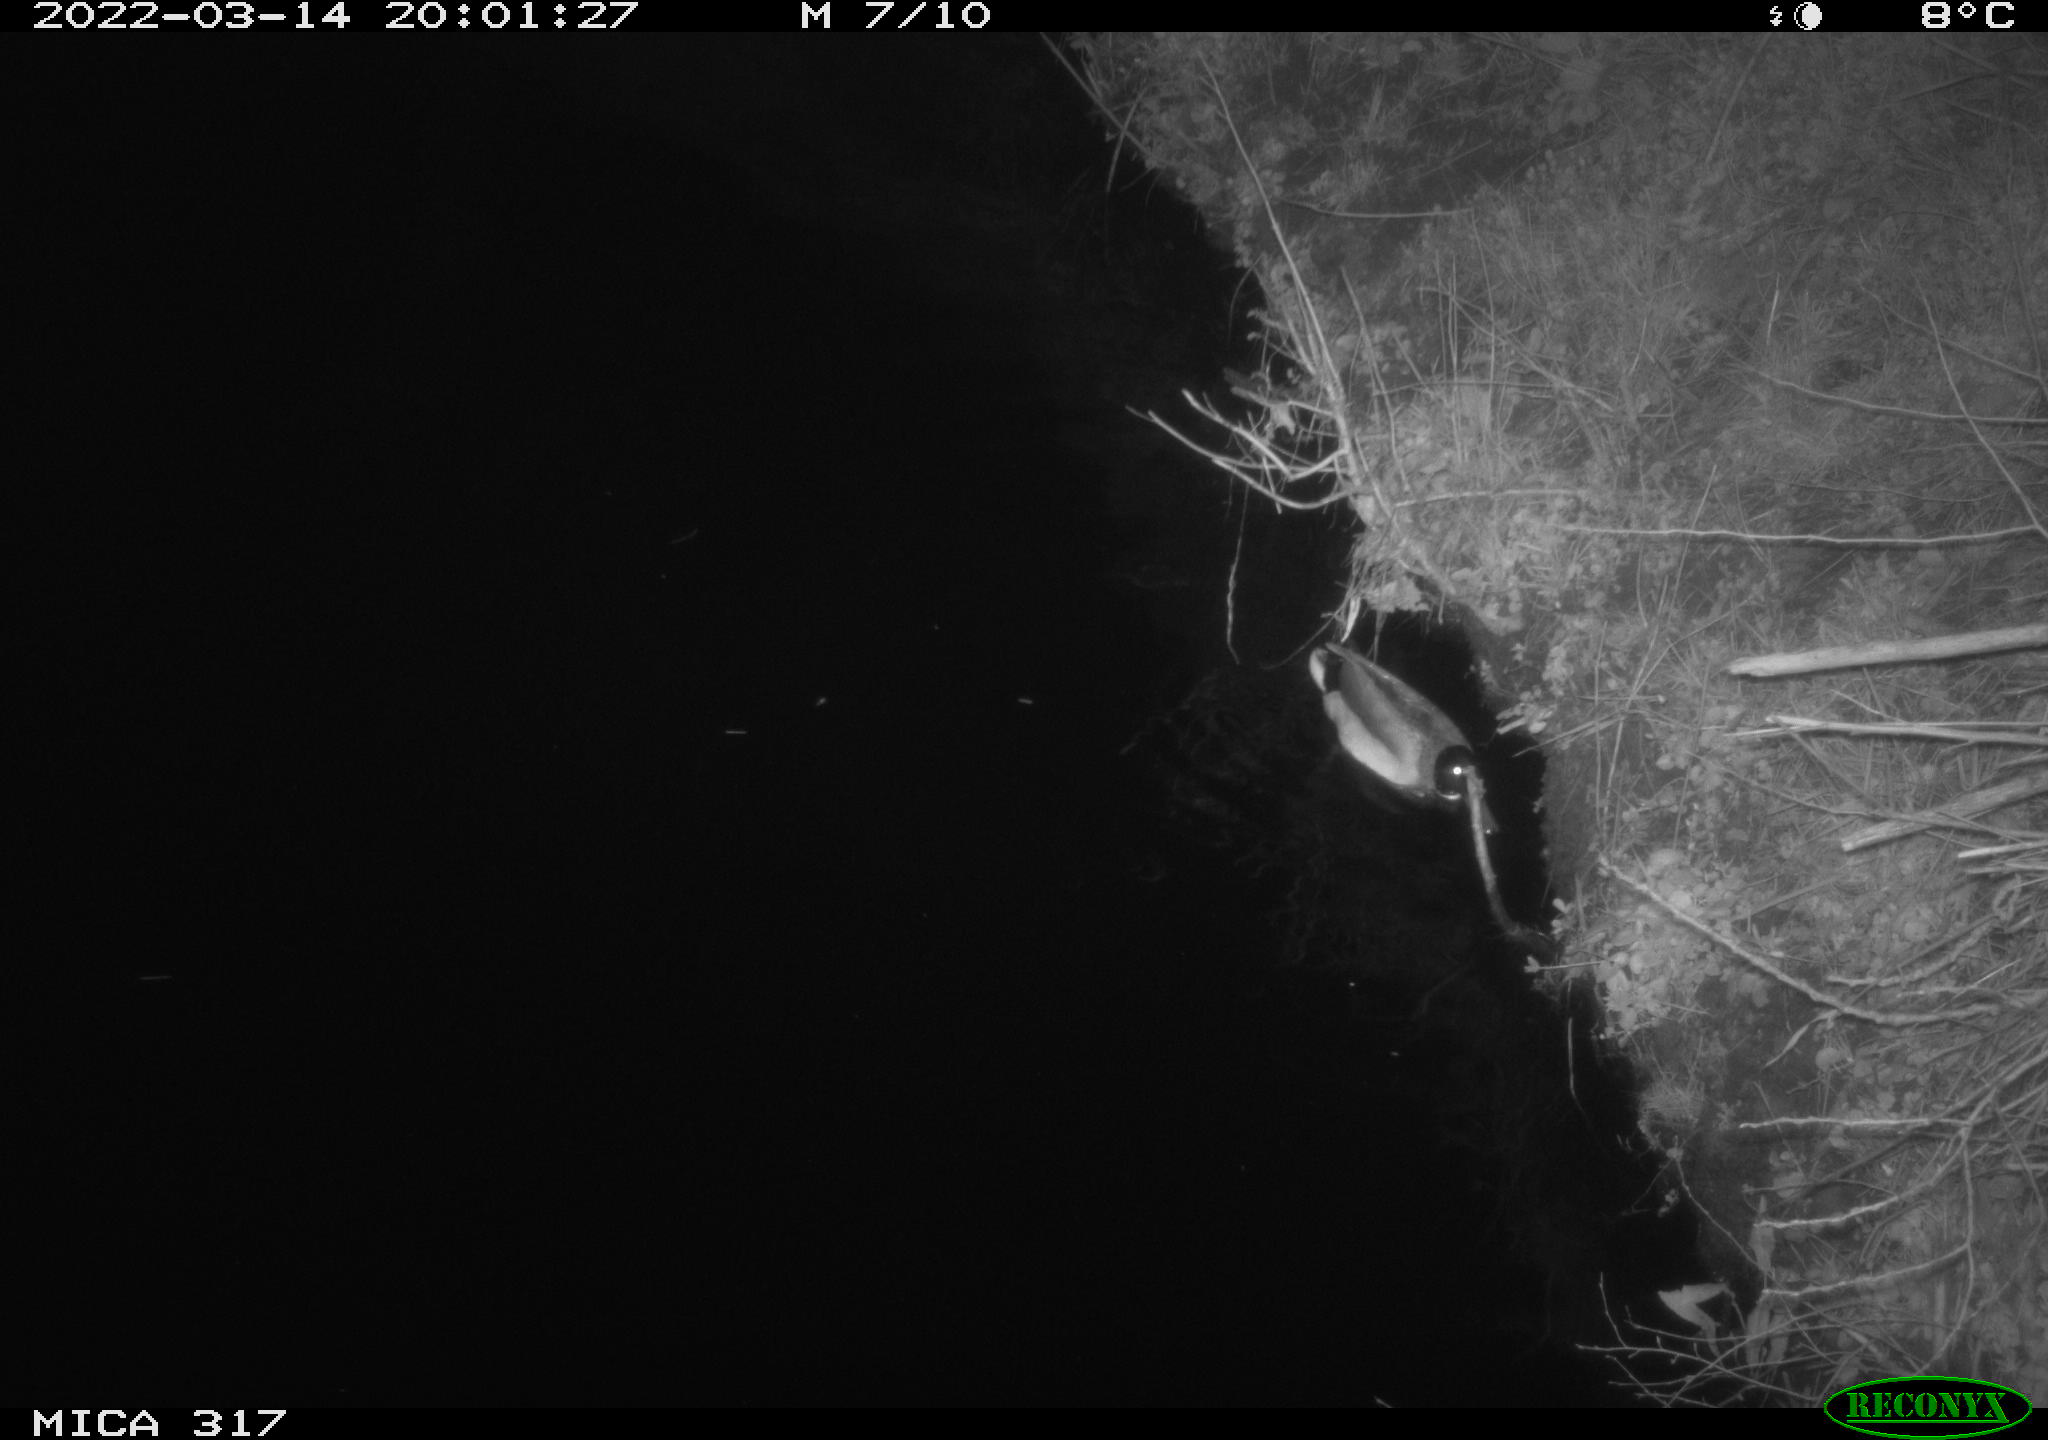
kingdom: Animalia
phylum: Chordata
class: Aves
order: Anseriformes
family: Anatidae
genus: Anas
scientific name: Anas platyrhynchos
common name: Mallard
